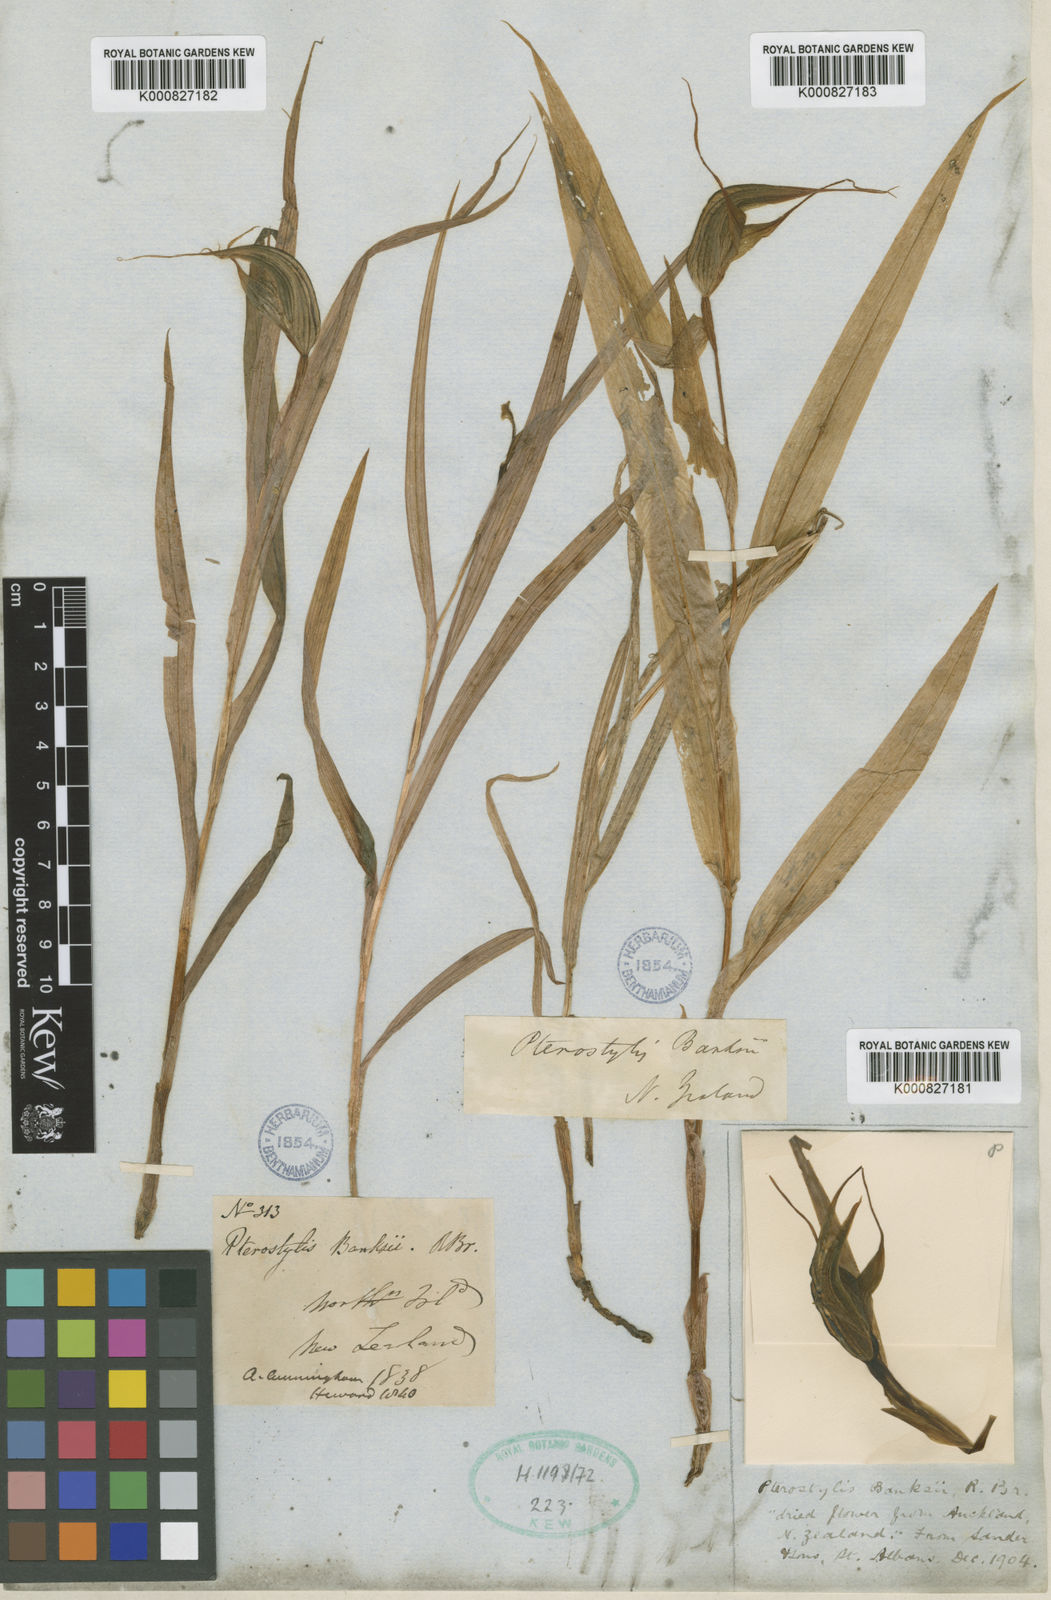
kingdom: Plantae
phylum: Tracheophyta
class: Liliopsida
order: Asparagales
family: Orchidaceae
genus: Pterostylis
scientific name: Pterostylis banksii
